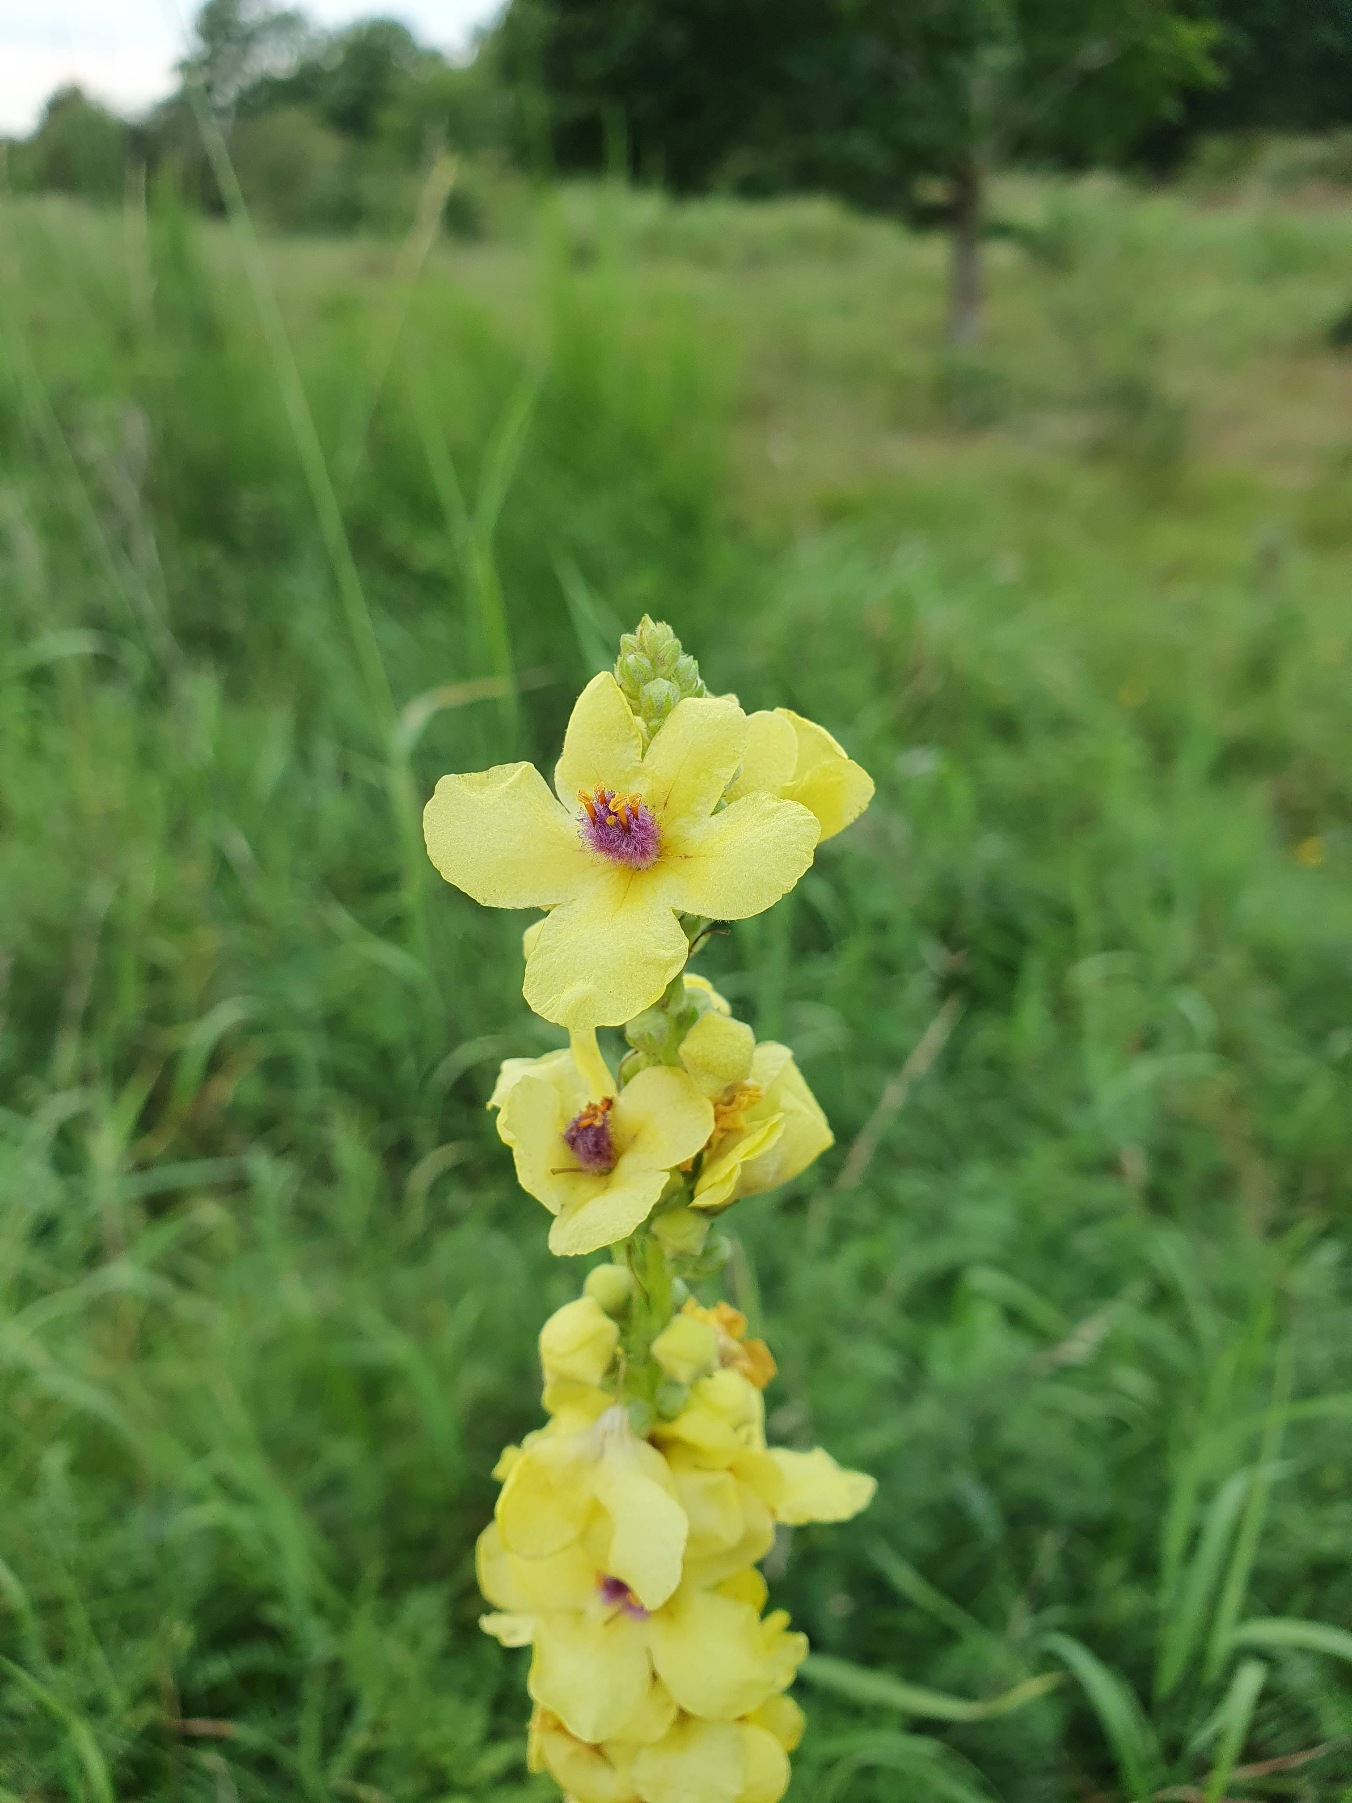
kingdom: Plantae
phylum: Tracheophyta
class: Magnoliopsida
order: Lamiales
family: Scrophulariaceae
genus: Verbascum
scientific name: Verbascum nigrum
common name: Mørk kongelys
